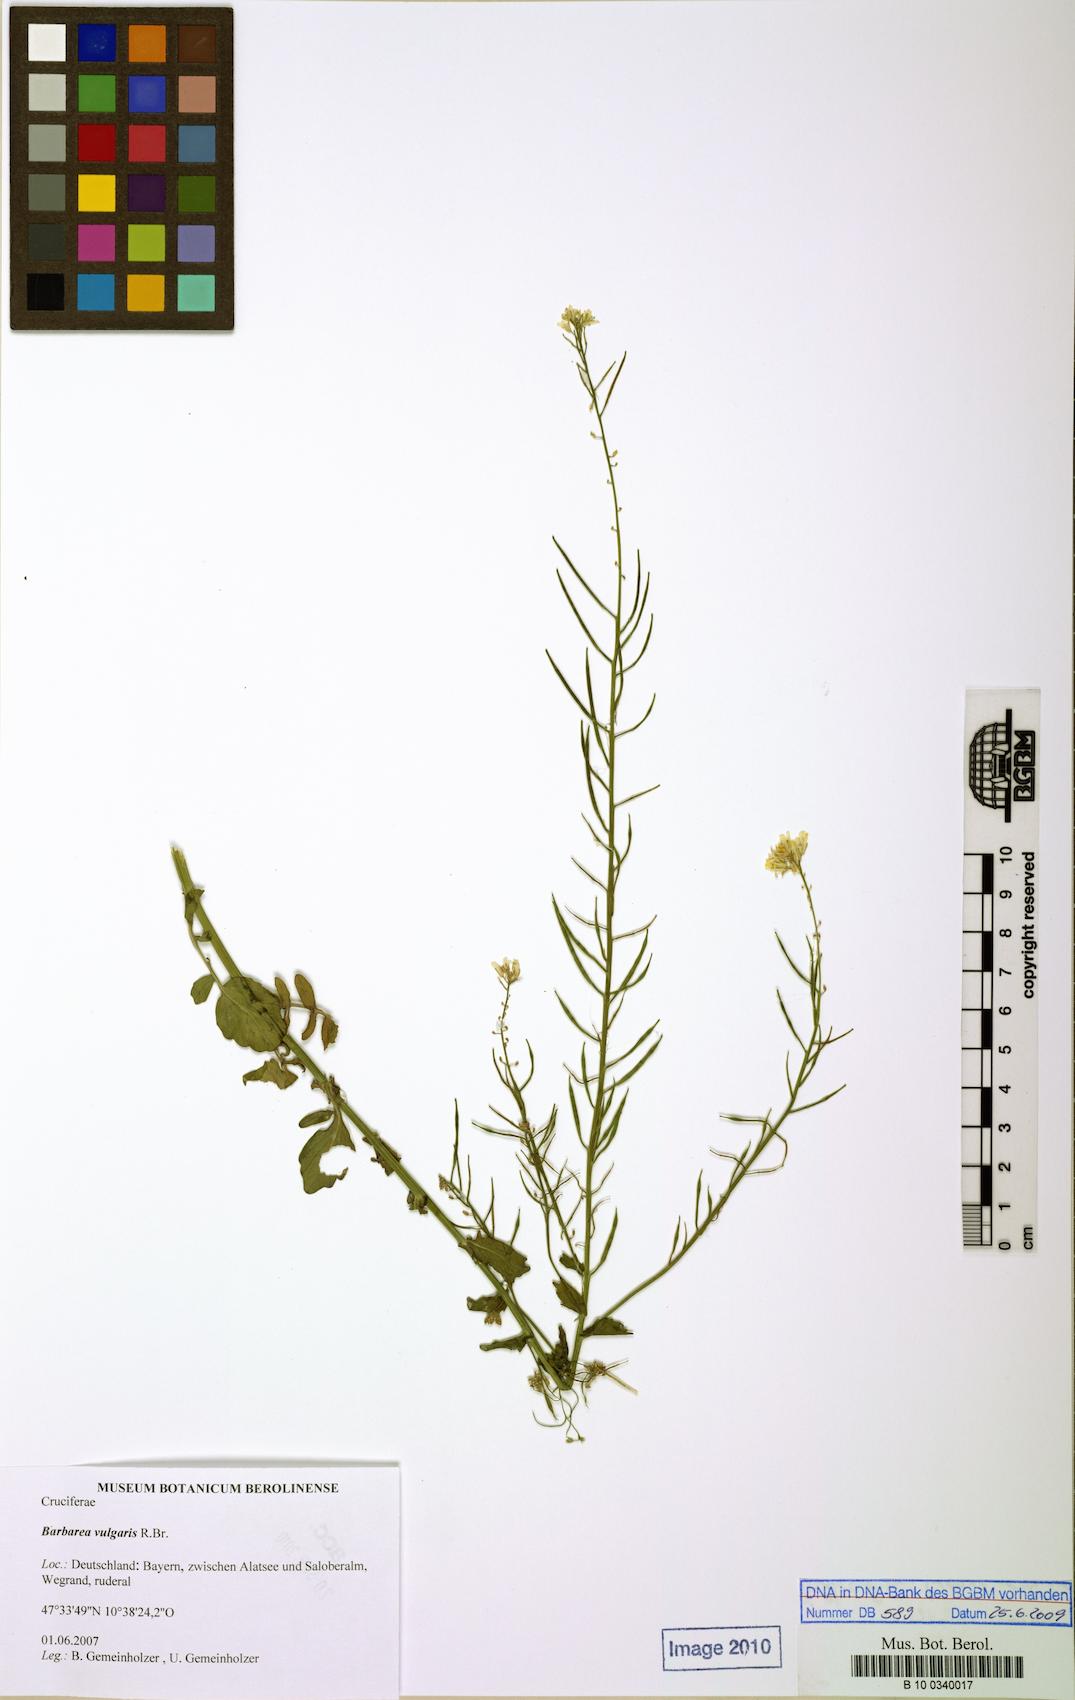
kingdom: Plantae
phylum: Tracheophyta
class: Magnoliopsida
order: Brassicales
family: Brassicaceae
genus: Barbarea
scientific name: Barbarea vulgaris
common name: Cressy-greens
